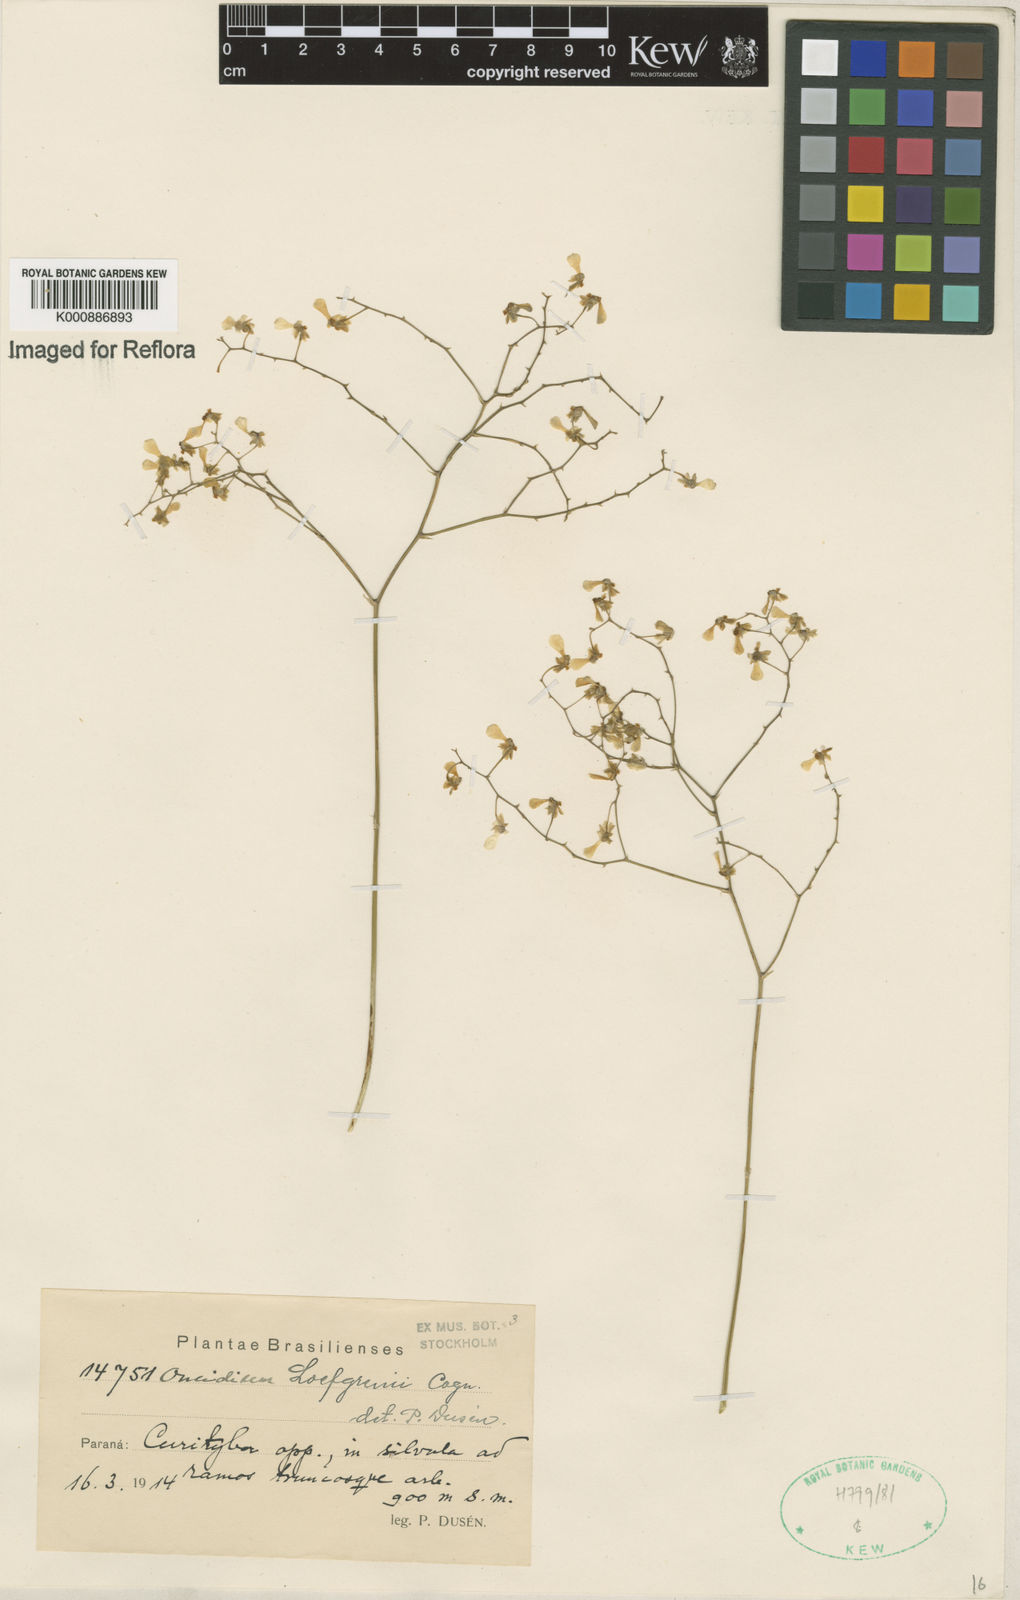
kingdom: Plantae
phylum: Tracheophyta
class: Liliopsida
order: Asparagales
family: Orchidaceae
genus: Gomesa
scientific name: Gomesa ranifera
